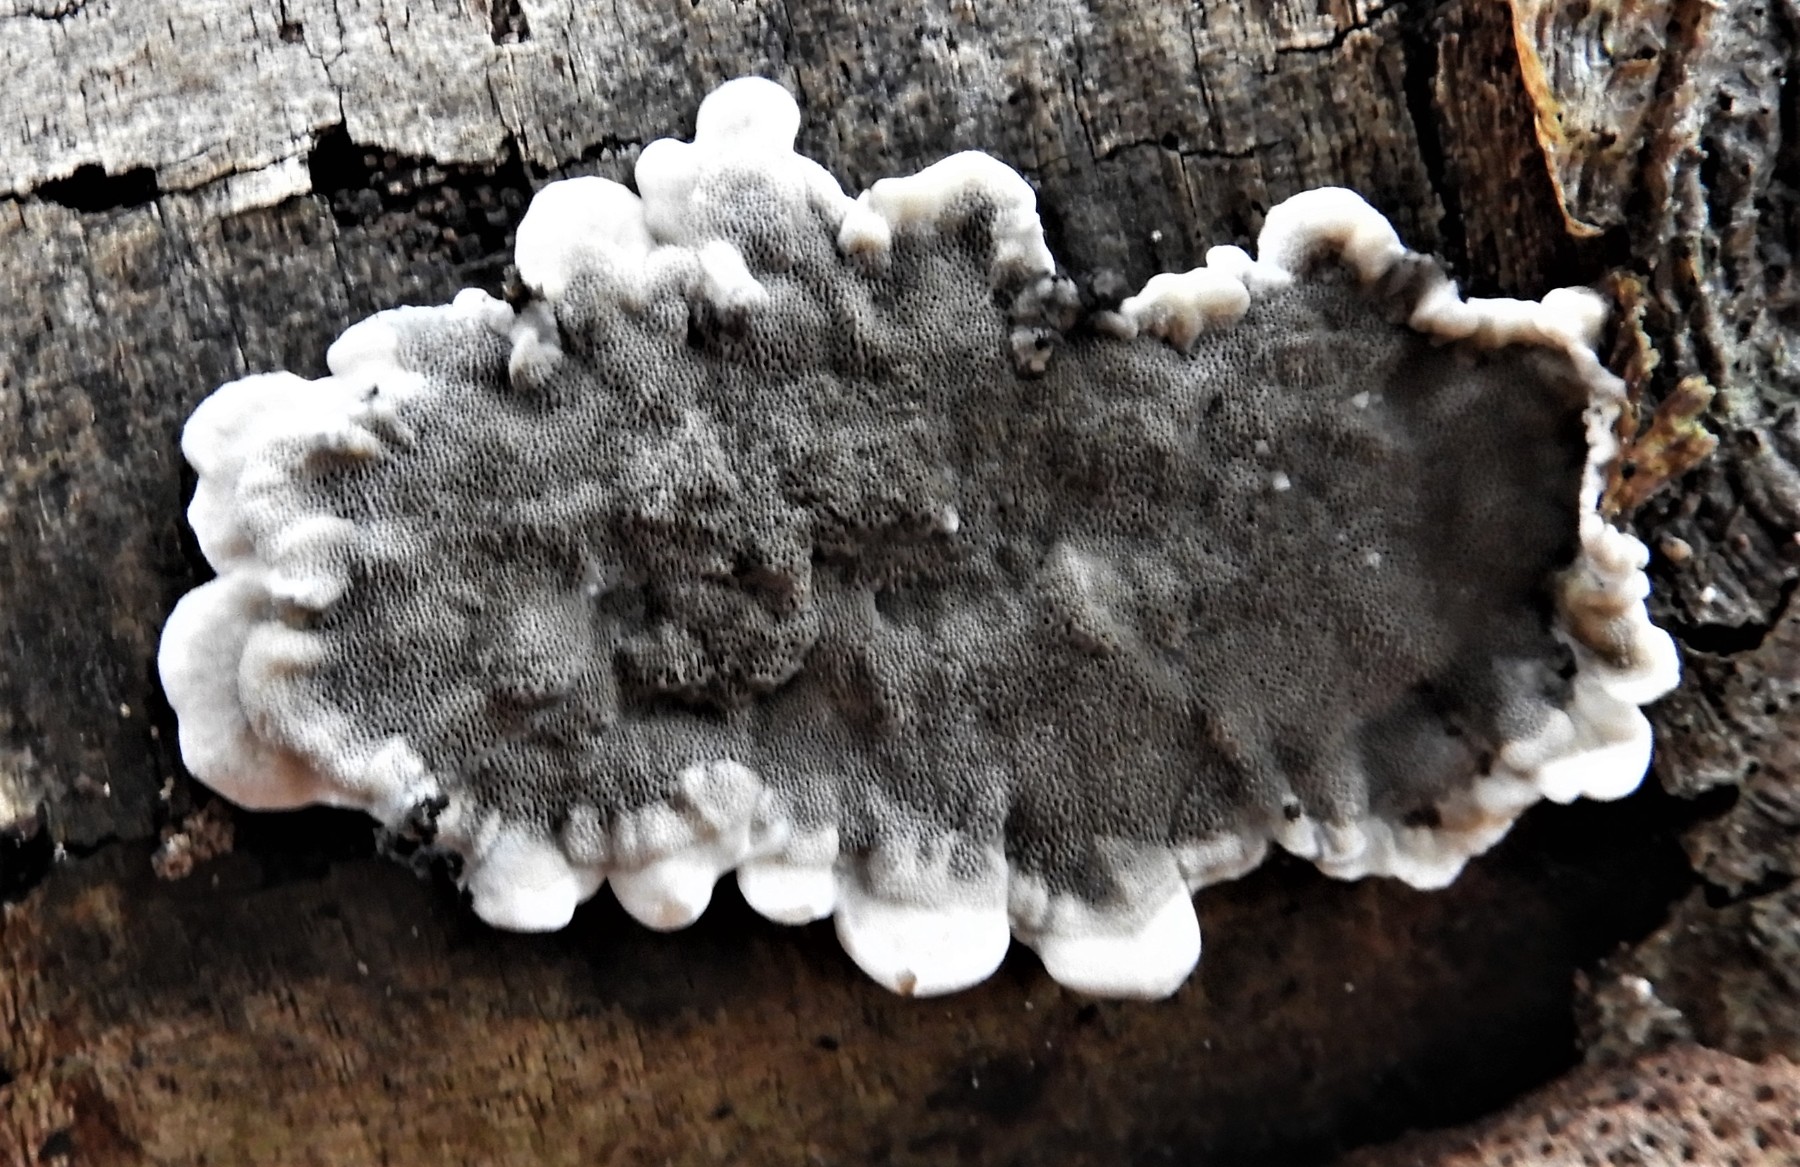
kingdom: Fungi
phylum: Basidiomycota
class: Agaricomycetes
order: Polyporales
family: Phanerochaetaceae
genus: Bjerkandera
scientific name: Bjerkandera adusta
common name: sveden sodporesvamp
